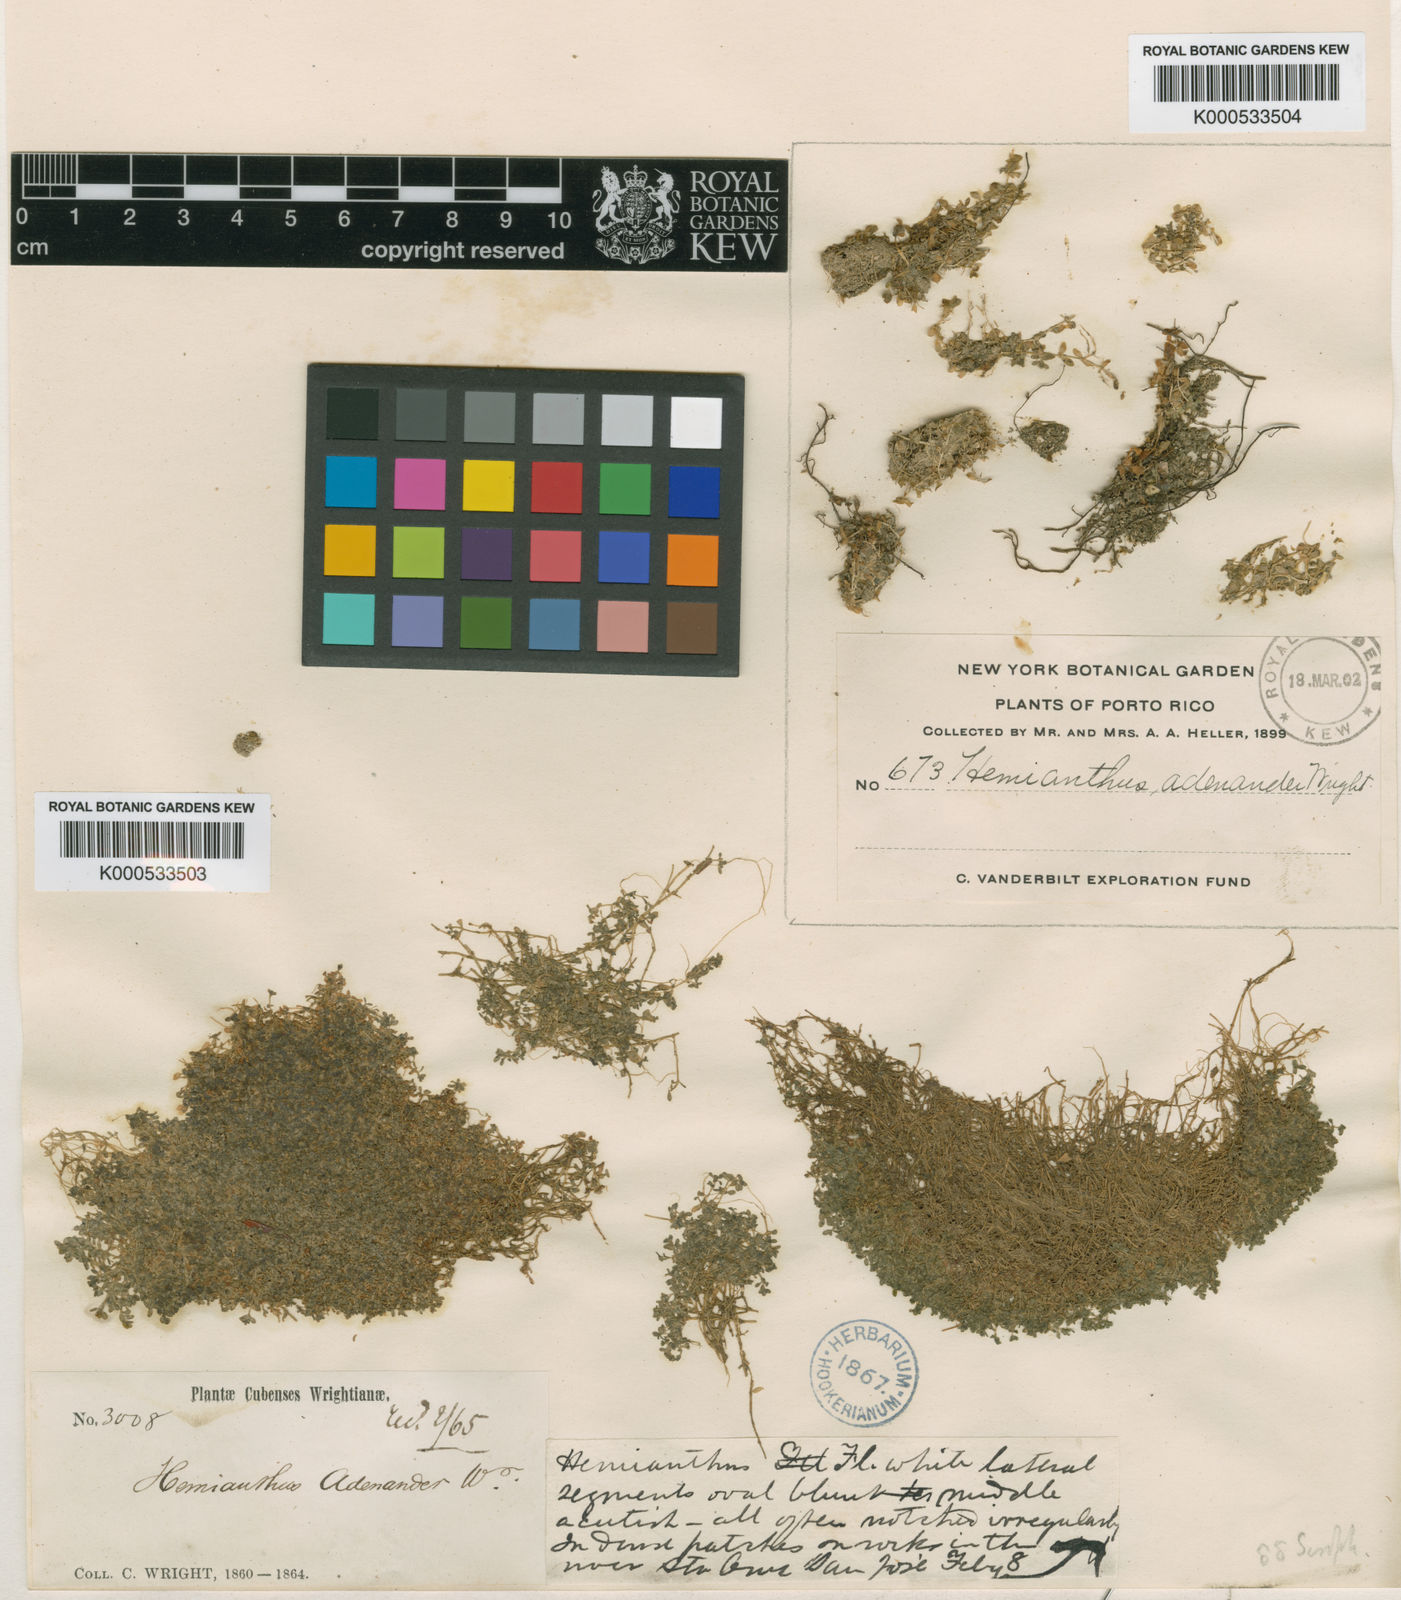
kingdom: Plantae
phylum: Tracheophyta
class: Magnoliopsida
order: Lamiales
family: Linderniaceae
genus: Micranthemum
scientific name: Micranthemum callitrichoides
